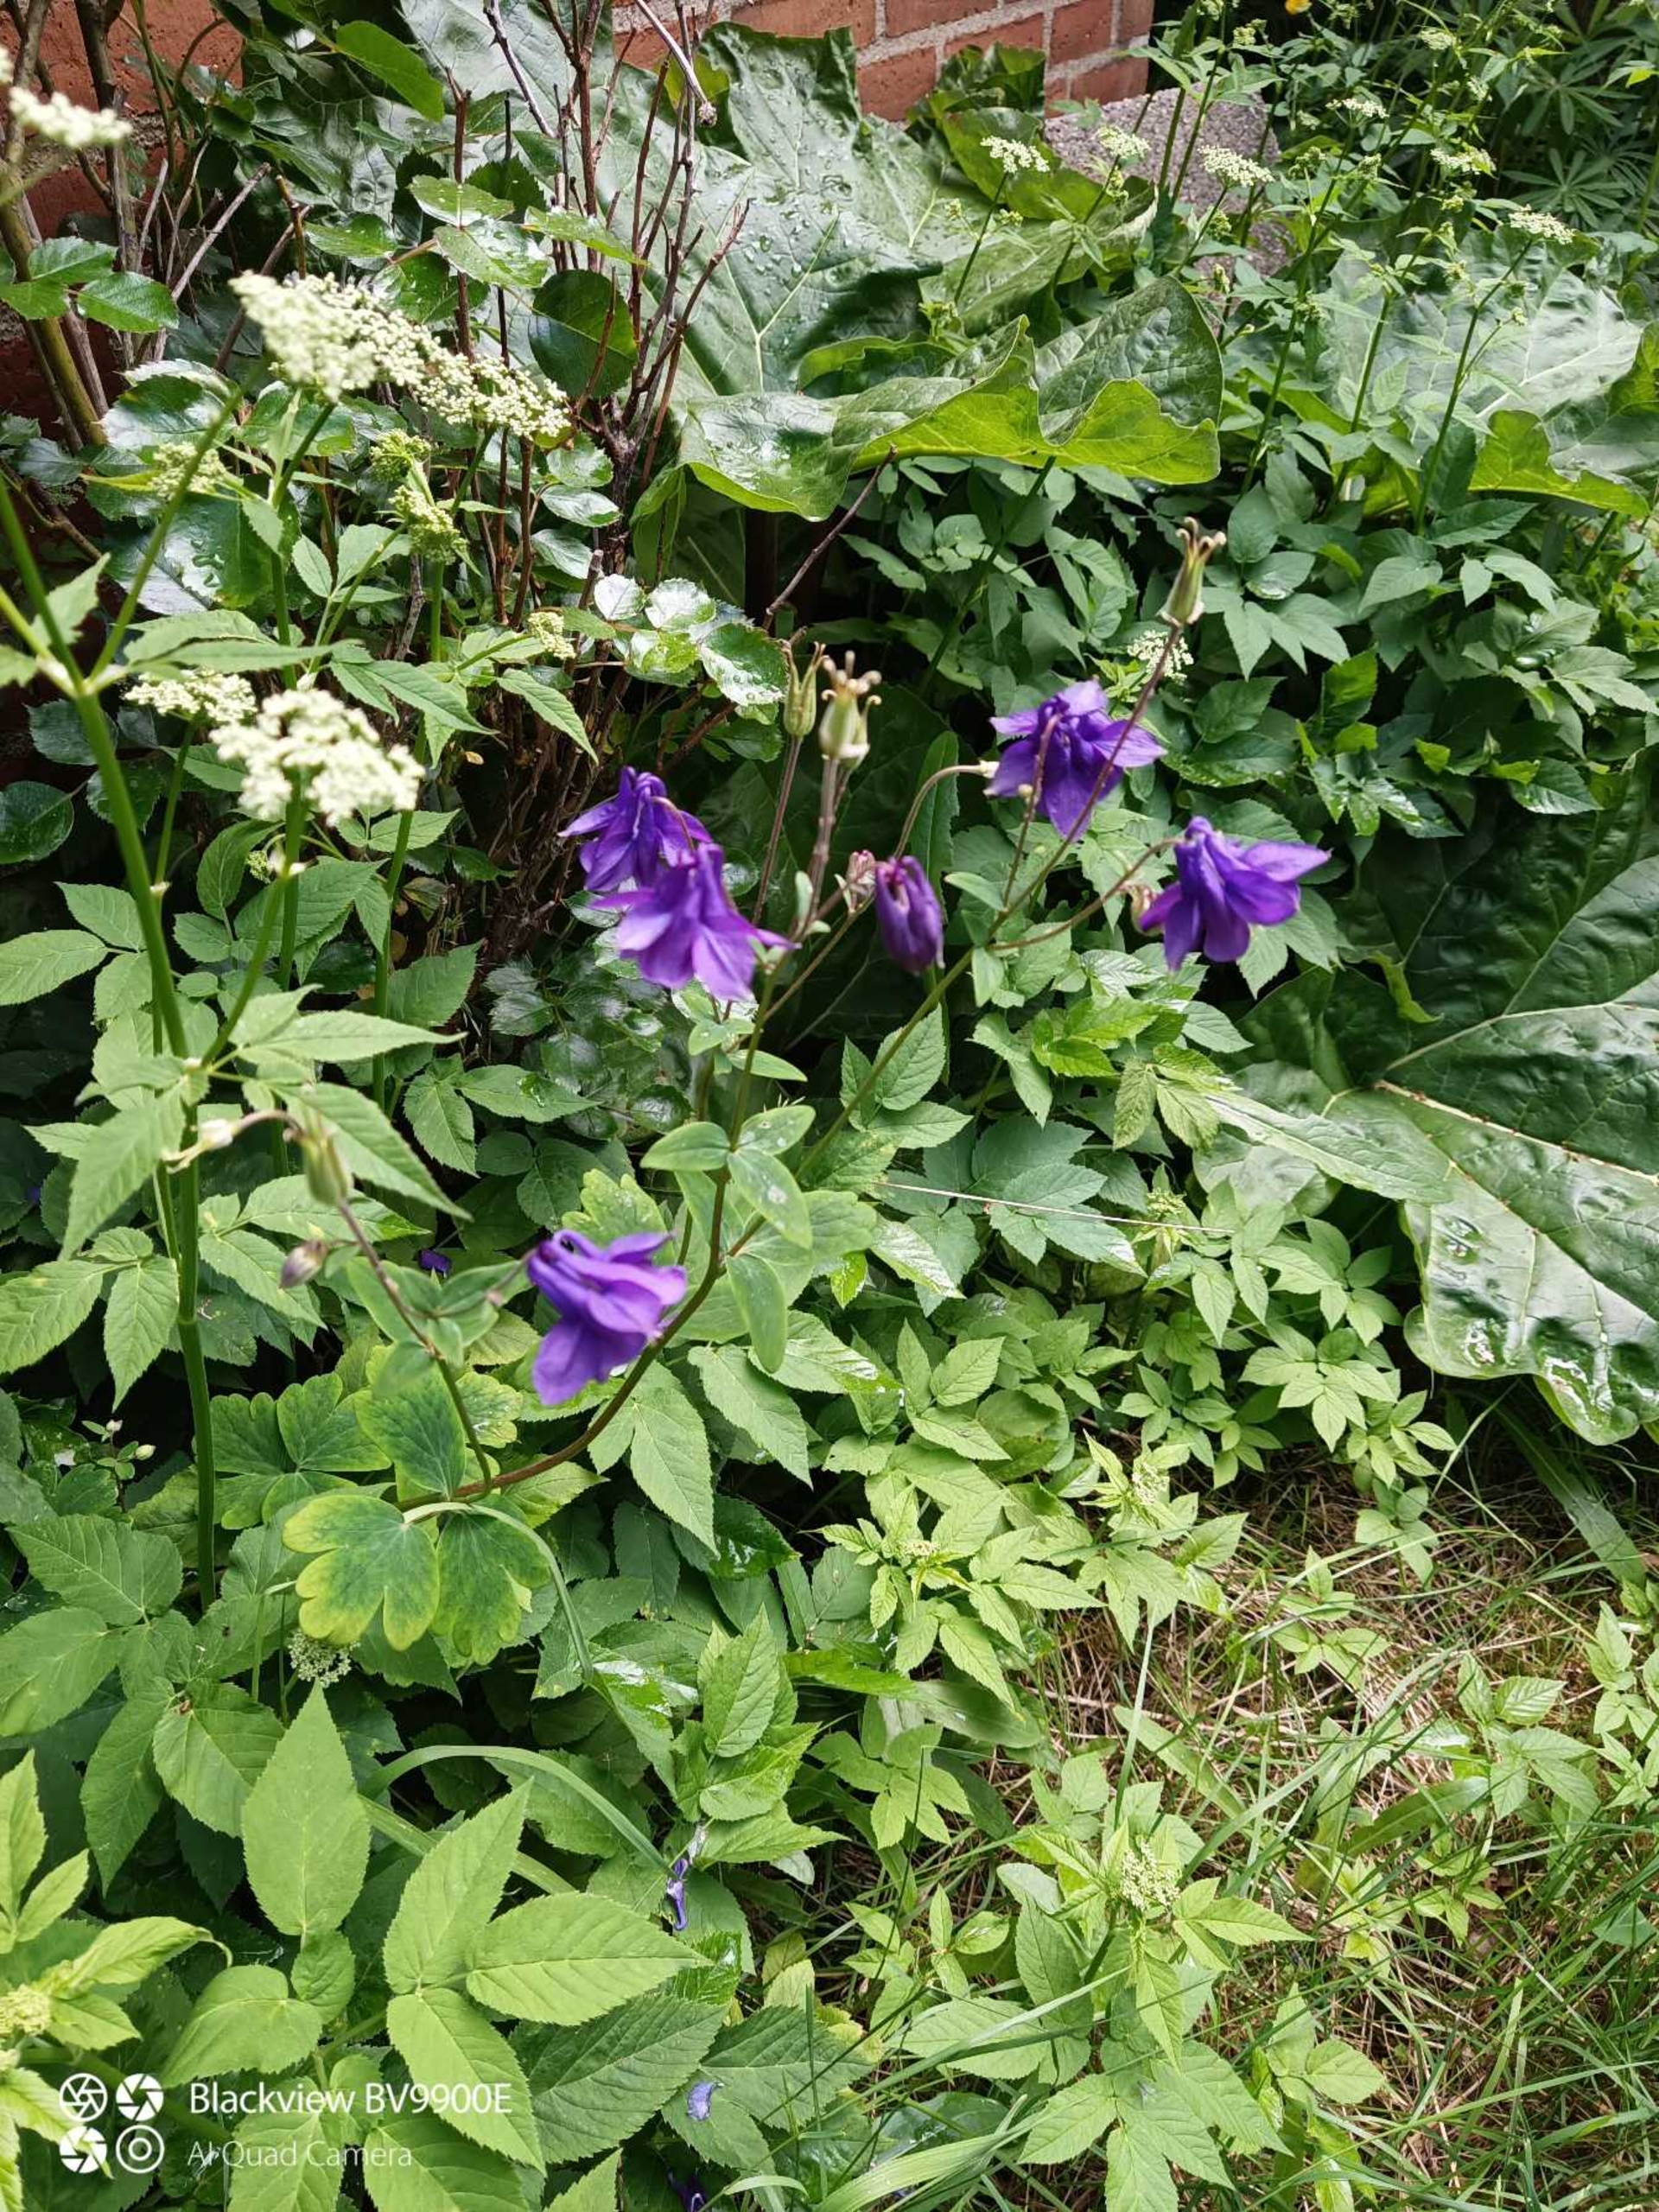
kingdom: Plantae
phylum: Tracheophyta
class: Magnoliopsida
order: Ranunculales
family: Ranunculaceae
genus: Aquilegia
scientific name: Aquilegia vulgaris
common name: Akeleje
